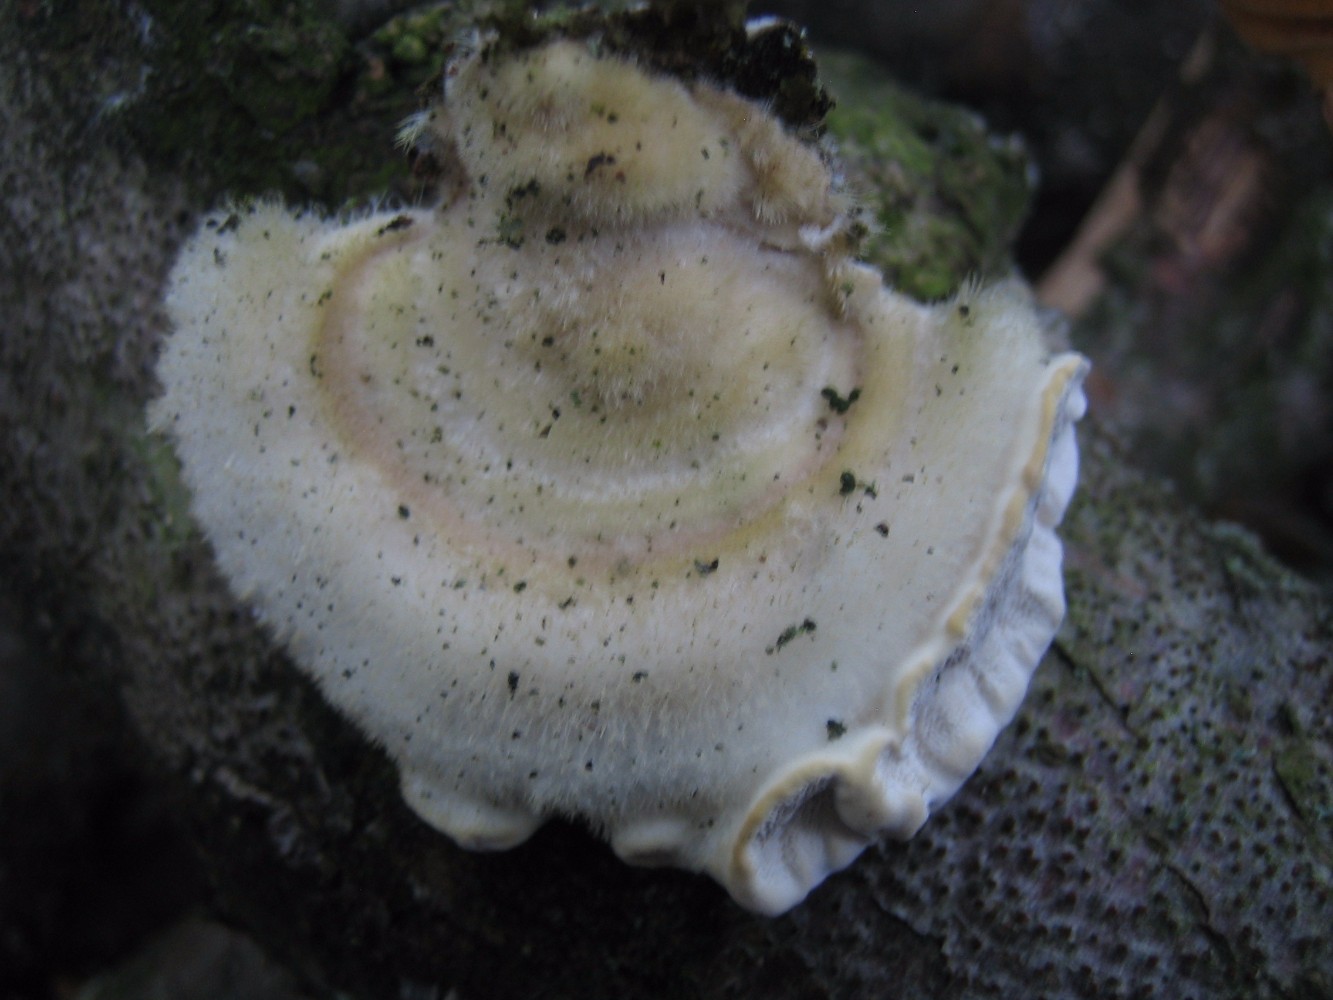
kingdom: Fungi
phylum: Basidiomycota
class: Agaricomycetes
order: Polyporales
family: Polyporaceae
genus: Trametes
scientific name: Trametes hirsuta
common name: håret læderporesvamp
